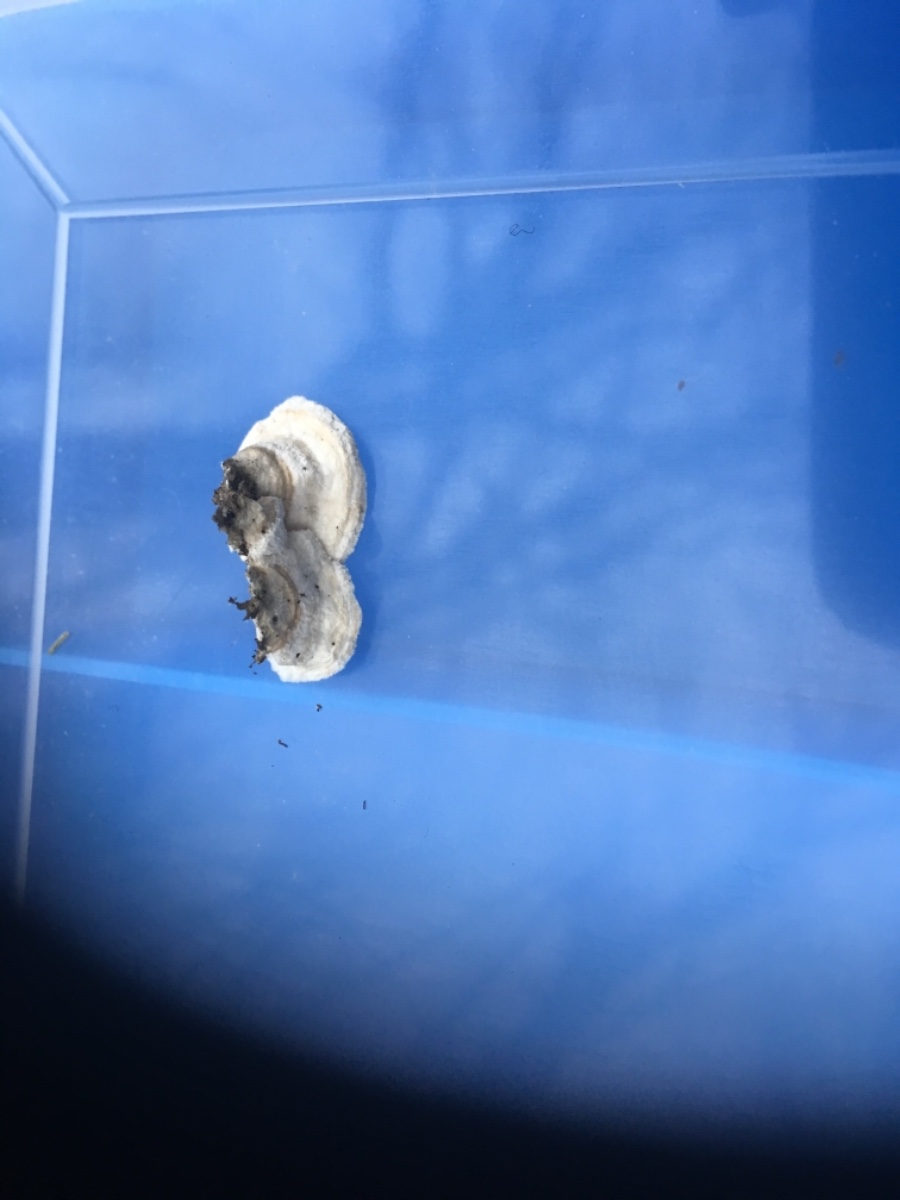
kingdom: Fungi
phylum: Basidiomycota
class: Agaricomycetes
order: Polyporales
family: Irpicaceae
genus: Byssomerulius
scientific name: Byssomerulius corium
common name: læder-åresvamp
